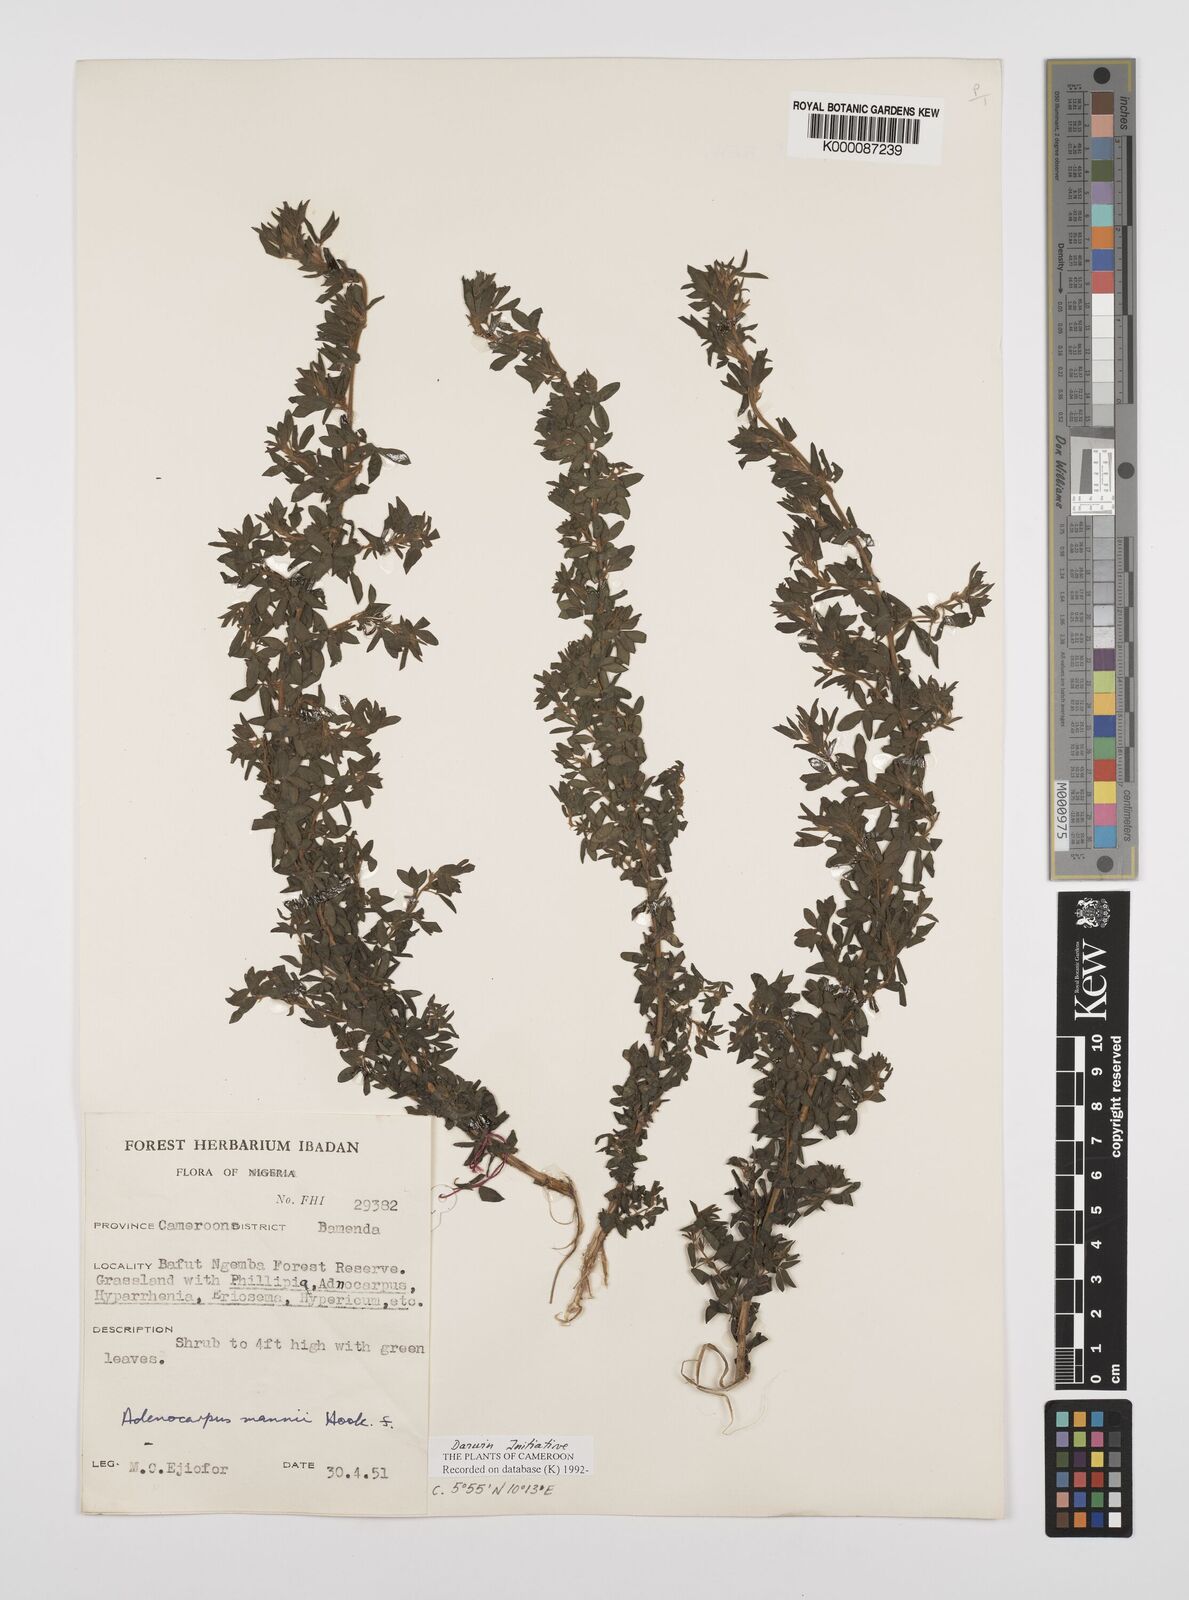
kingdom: Plantae
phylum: Tracheophyta
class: Magnoliopsida
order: Fabales
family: Fabaceae
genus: Adenocarpus
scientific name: Adenocarpus mannii
